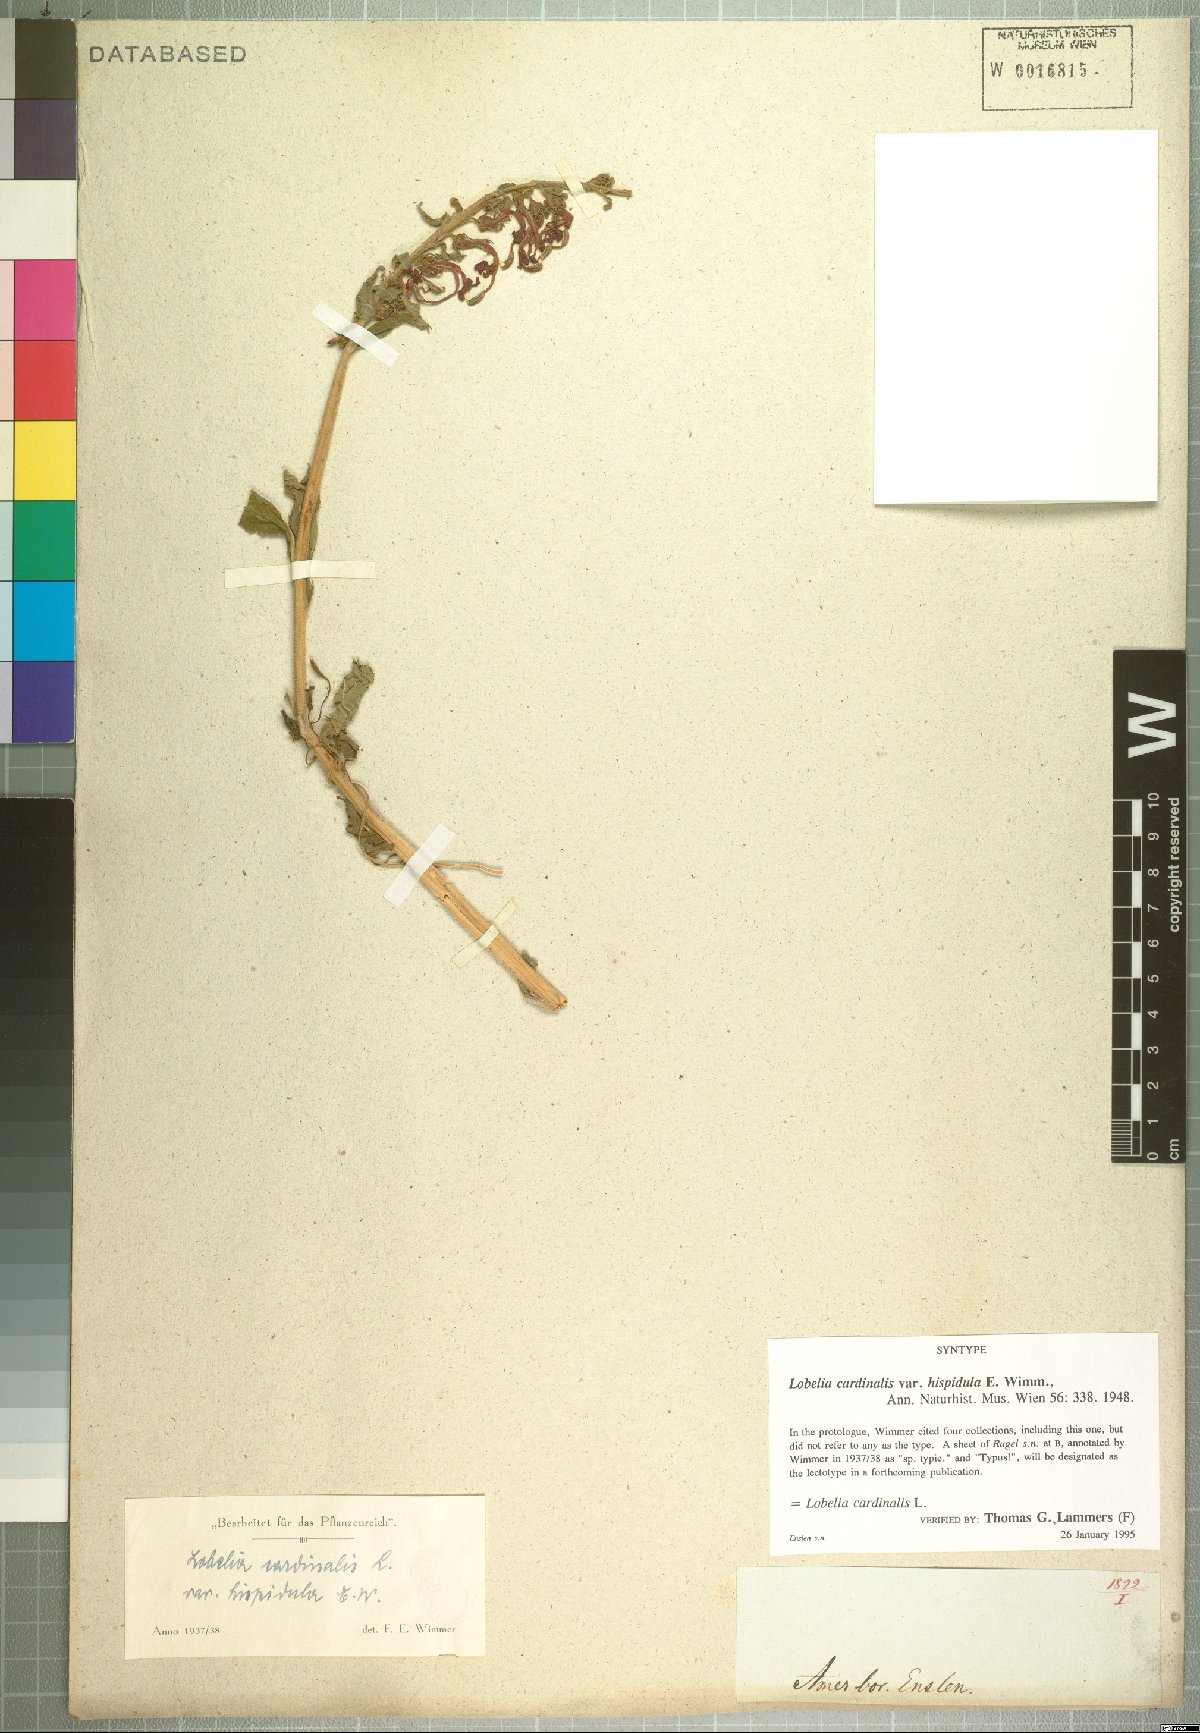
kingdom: Plantae
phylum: Tracheophyta
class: Magnoliopsida
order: Asterales
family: Campanulaceae
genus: Lobelia
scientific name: Lobelia cardinalis
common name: Cardinal flower
